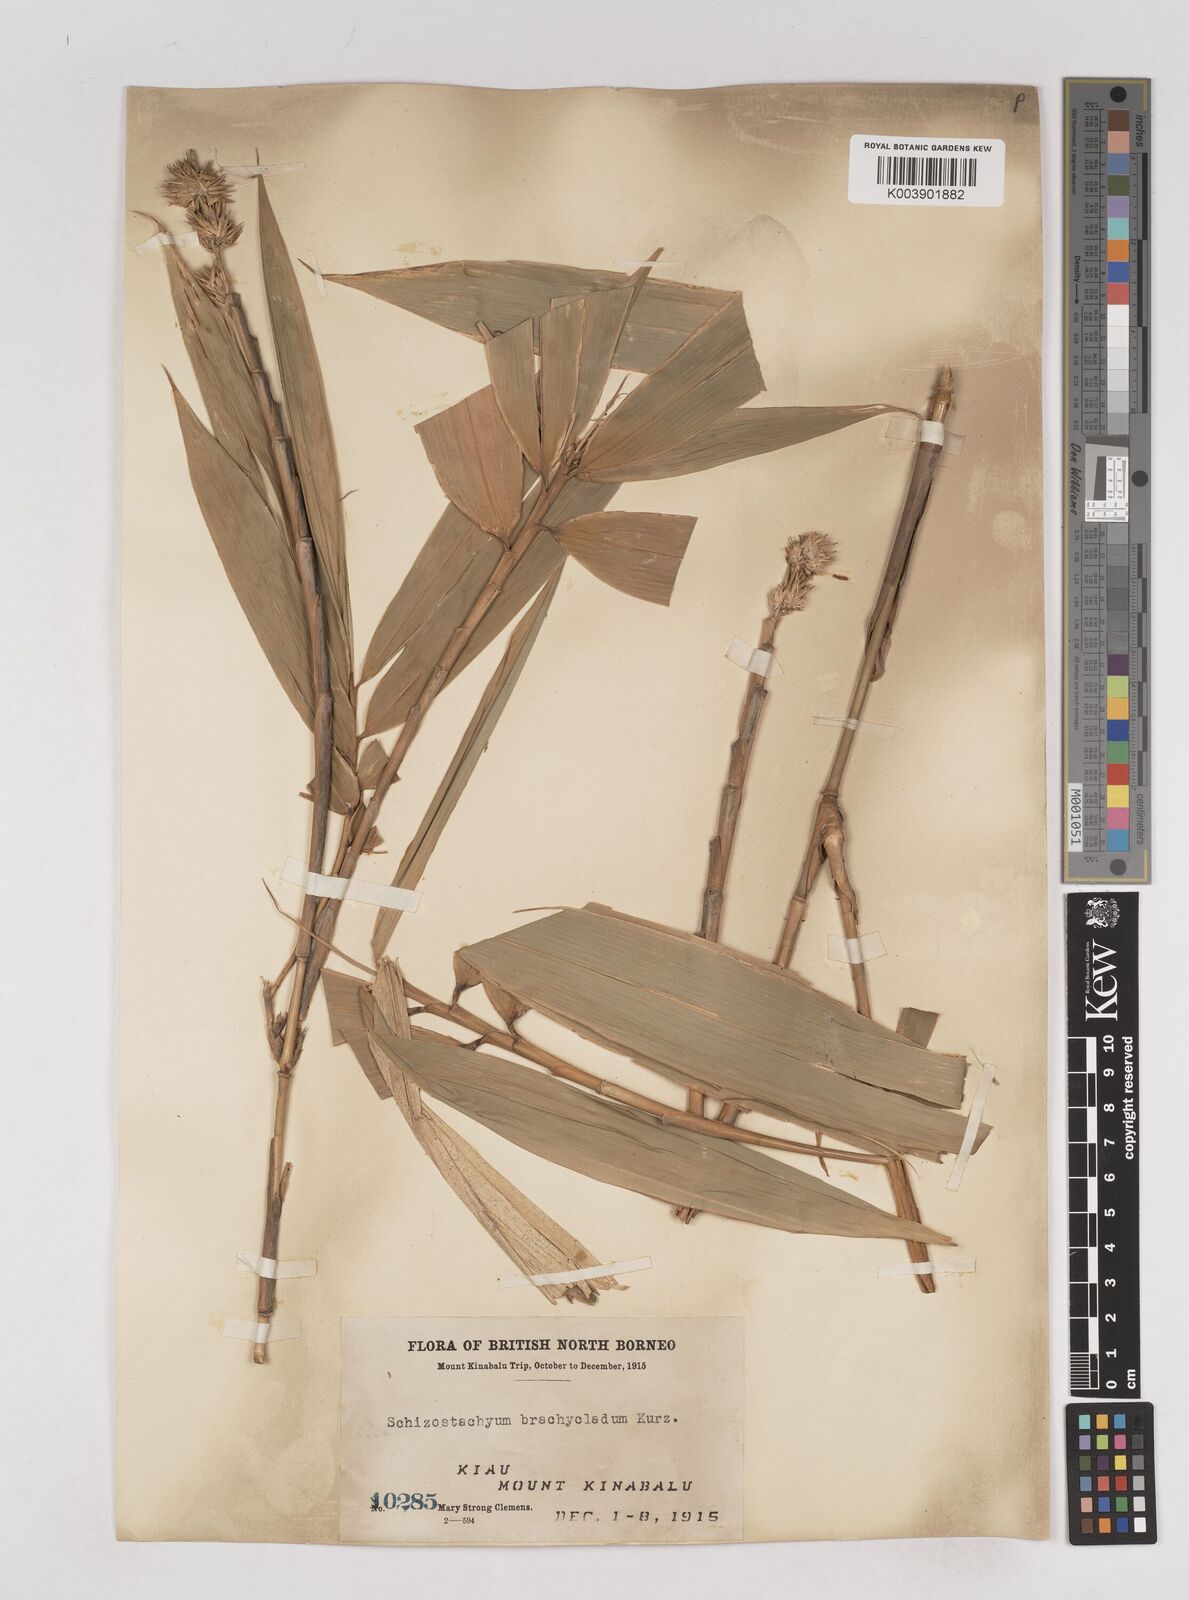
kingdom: Plantae
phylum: Tracheophyta
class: Liliopsida
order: Poales
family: Poaceae
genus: Schizostachyum
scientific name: Schizostachyum brachycladum
